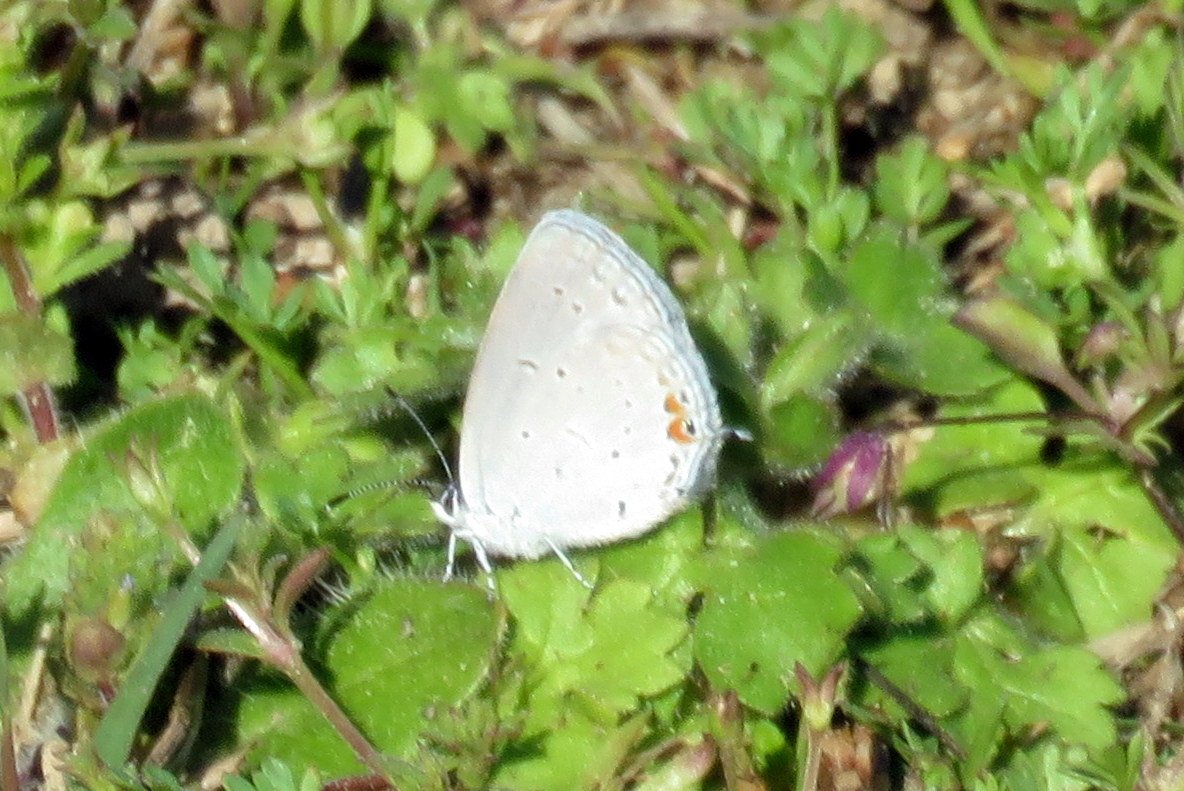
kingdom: Animalia
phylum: Arthropoda
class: Insecta
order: Lepidoptera
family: Lycaenidae
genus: Elkalyce
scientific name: Elkalyce comyntas
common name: Eastern Tailed-Blue
